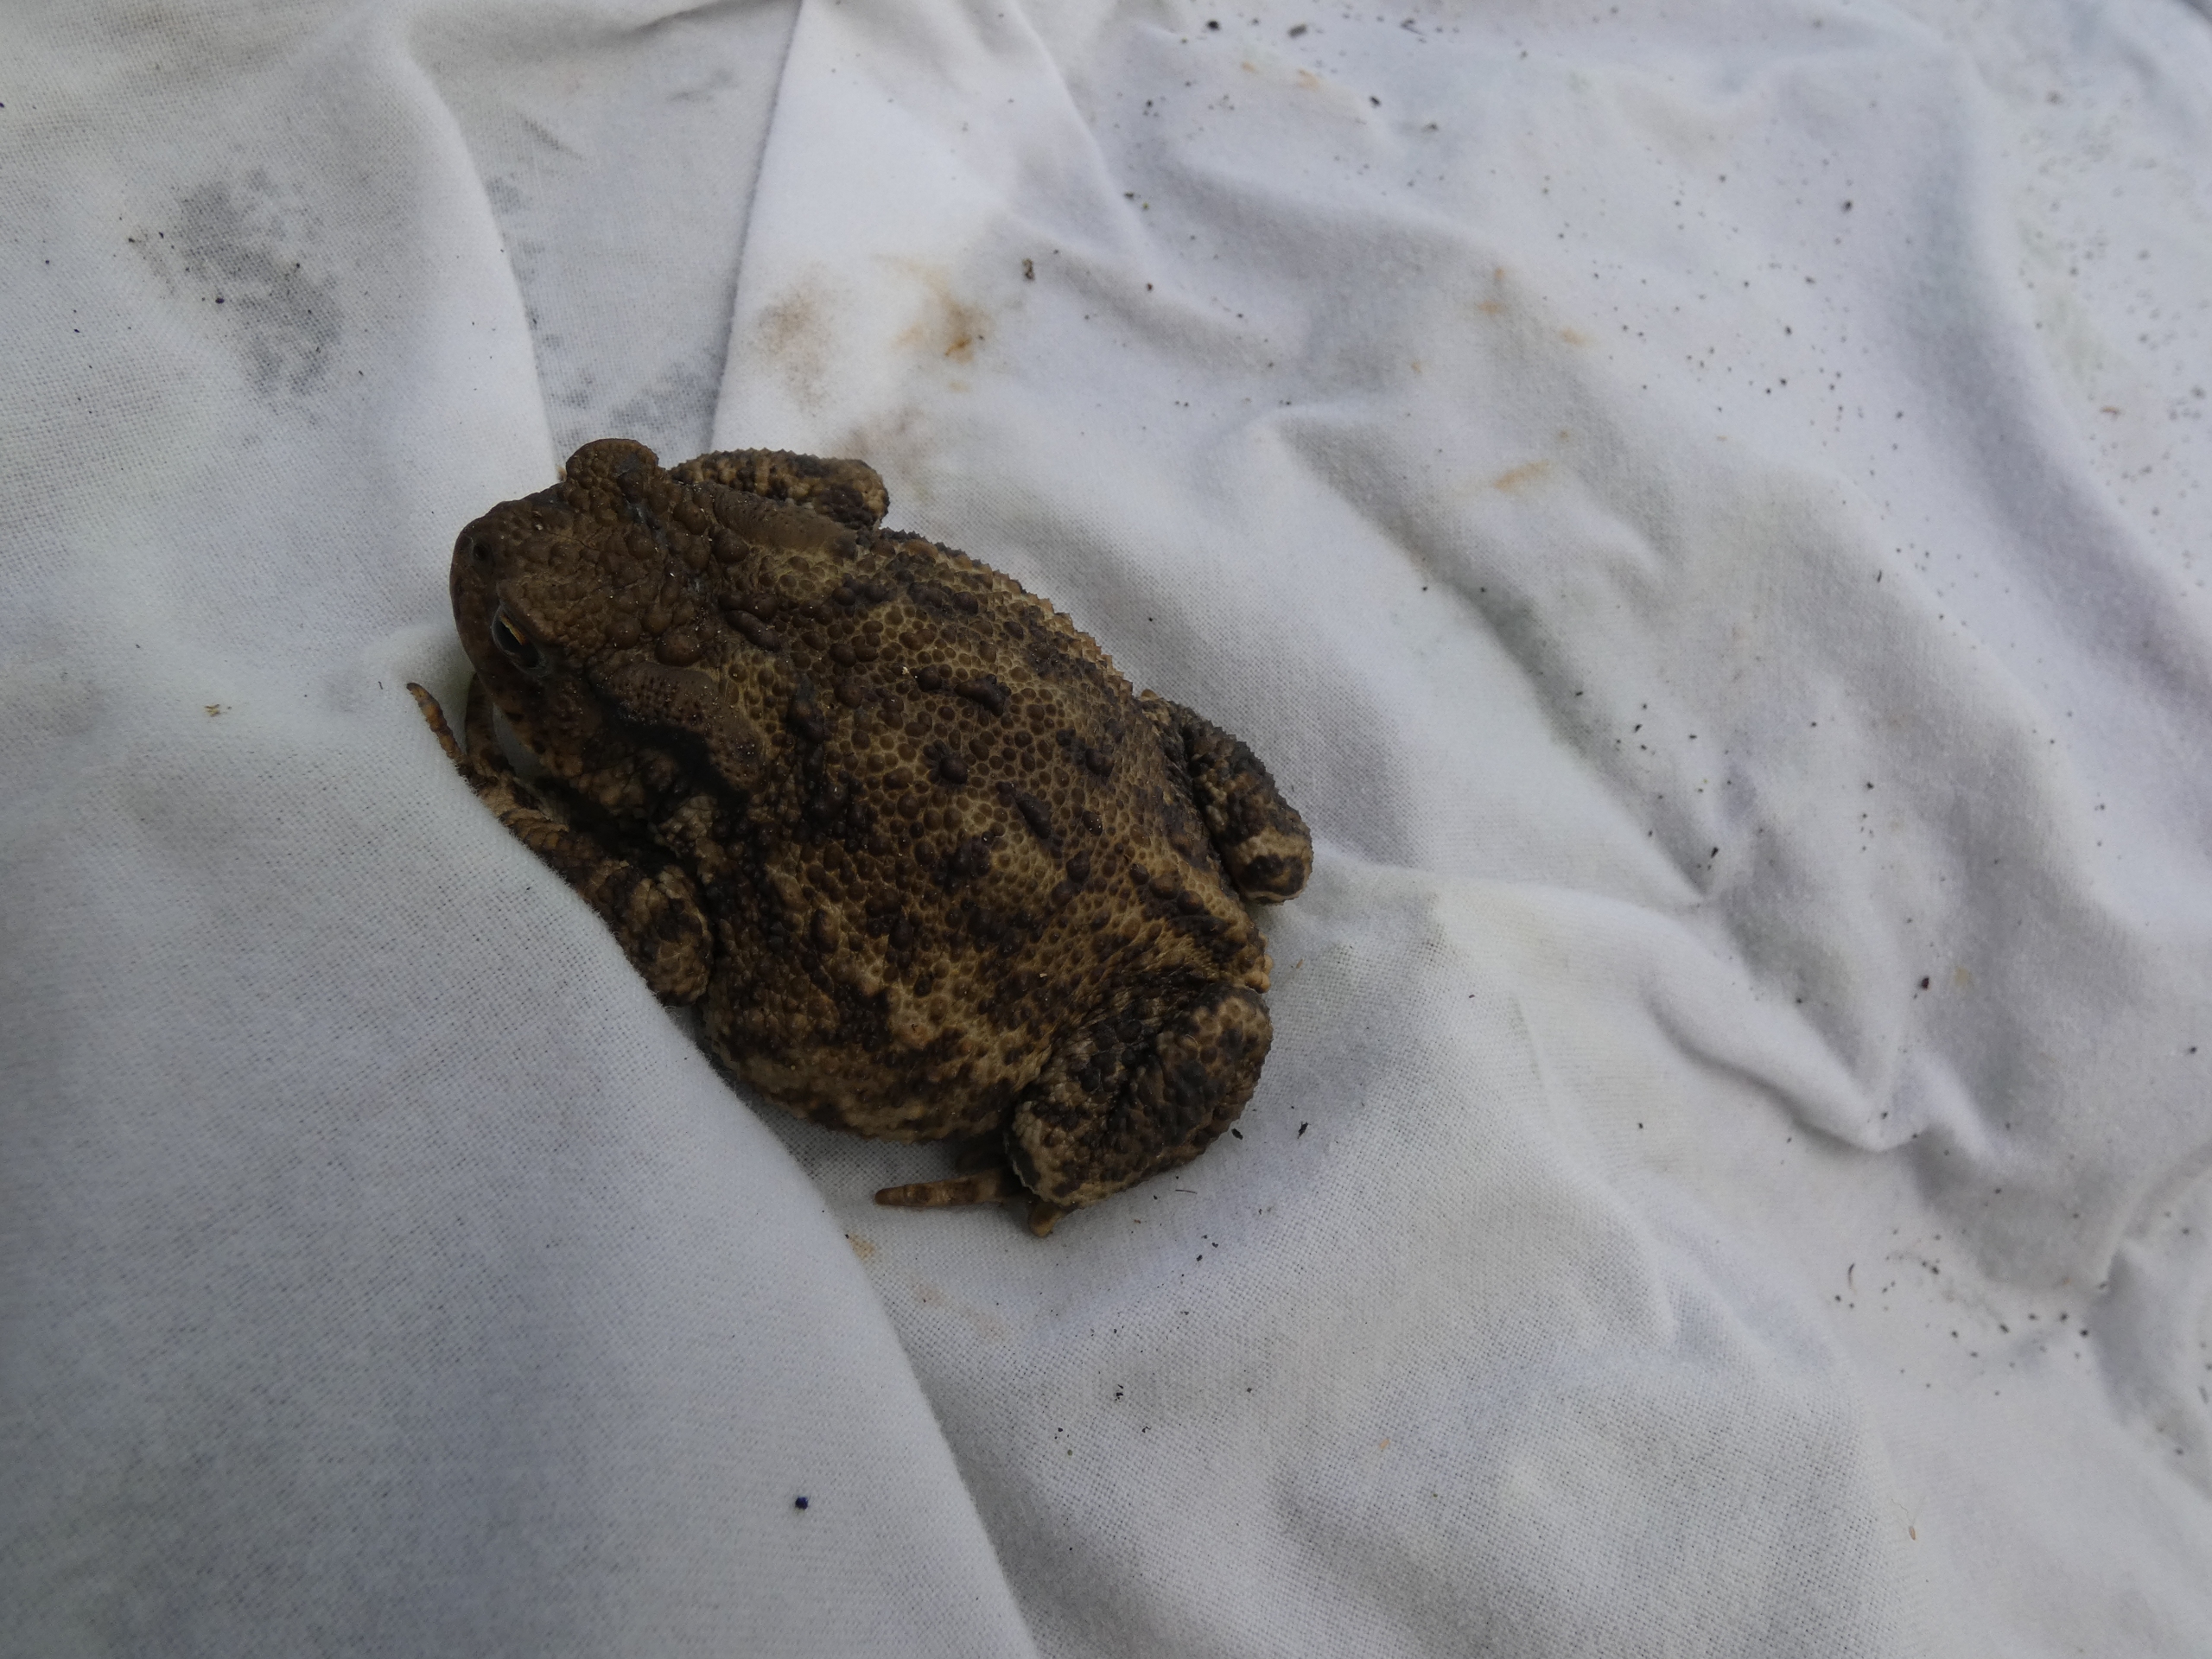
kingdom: Animalia
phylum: Chordata
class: Amphibia
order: Anura
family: Bufonidae
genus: Bufo
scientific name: Bufo bufo
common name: Skrubtudse
